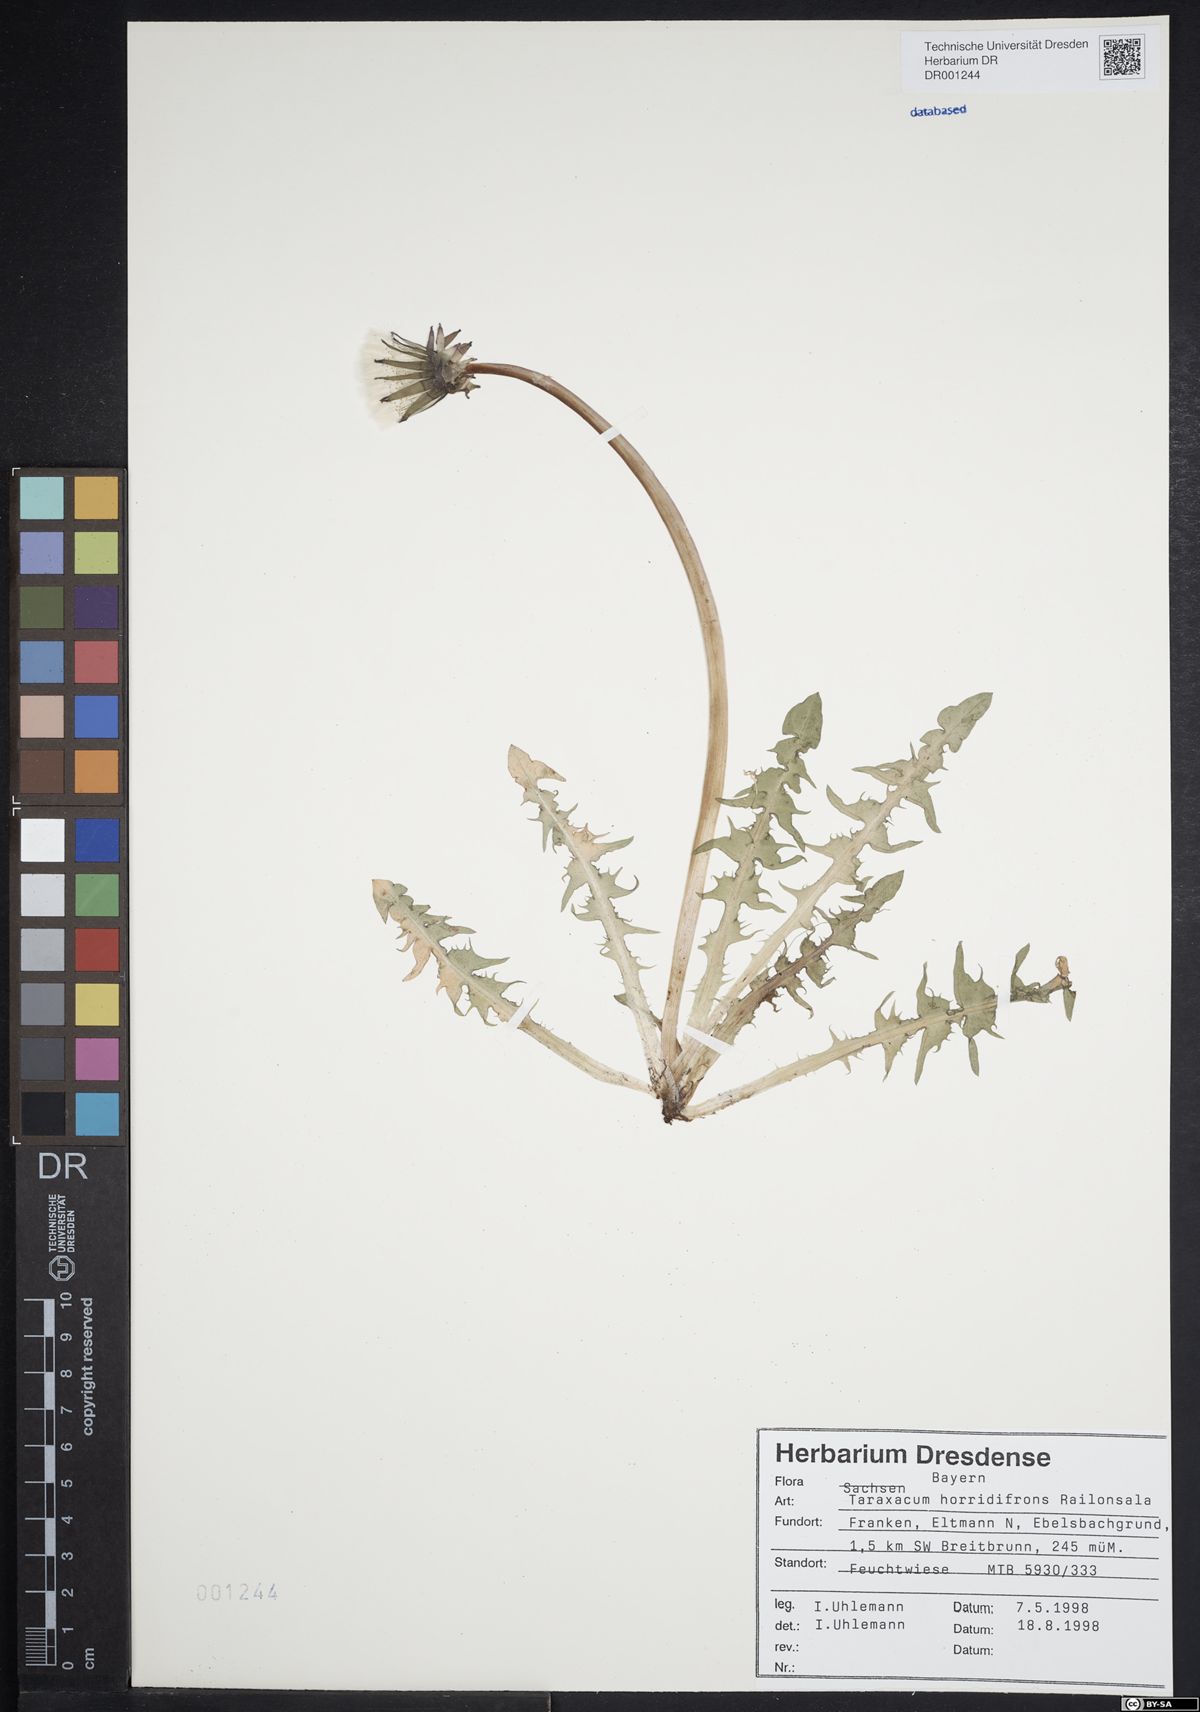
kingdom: Plantae
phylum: Tracheophyta
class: Magnoliopsida
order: Asterales
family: Asteraceae
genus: Taraxacum
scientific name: Taraxacum horridifrons
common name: Prickly-leaved dandelion
